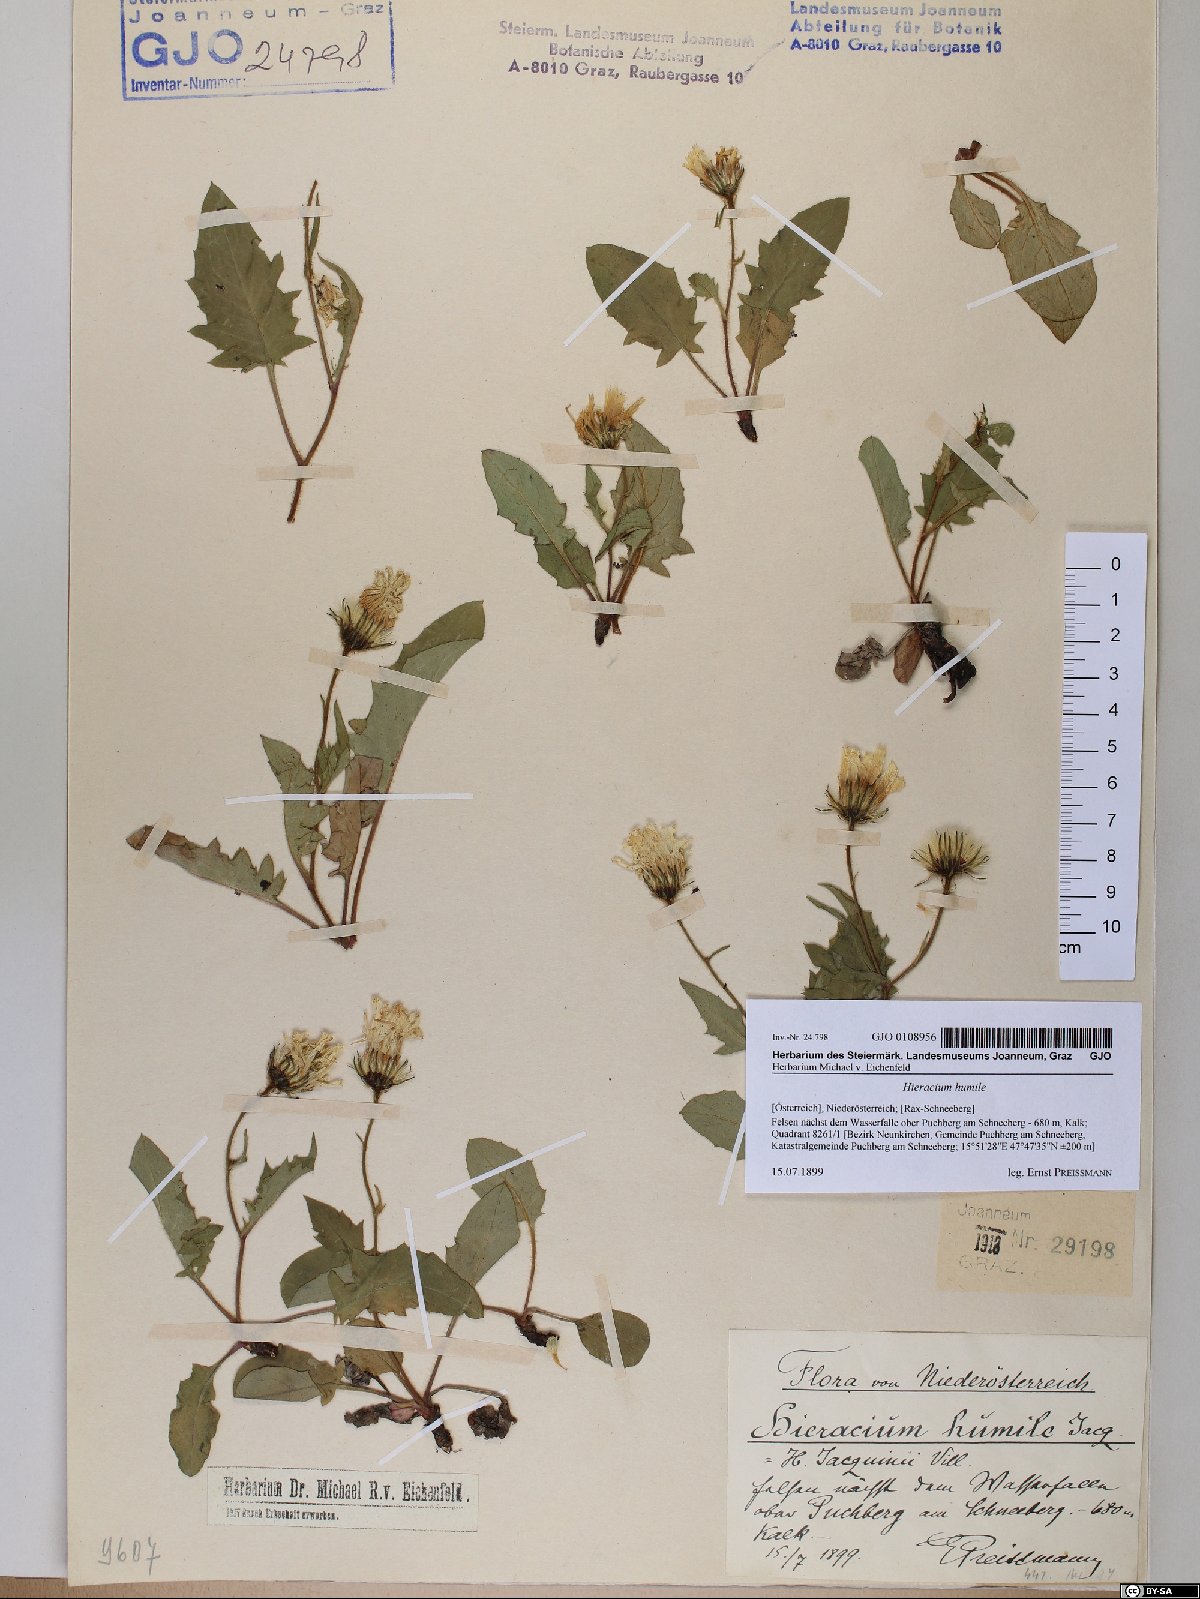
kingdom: Plantae
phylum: Tracheophyta
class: Magnoliopsida
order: Asterales
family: Asteraceae
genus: Hieracium
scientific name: Hieracium humile
